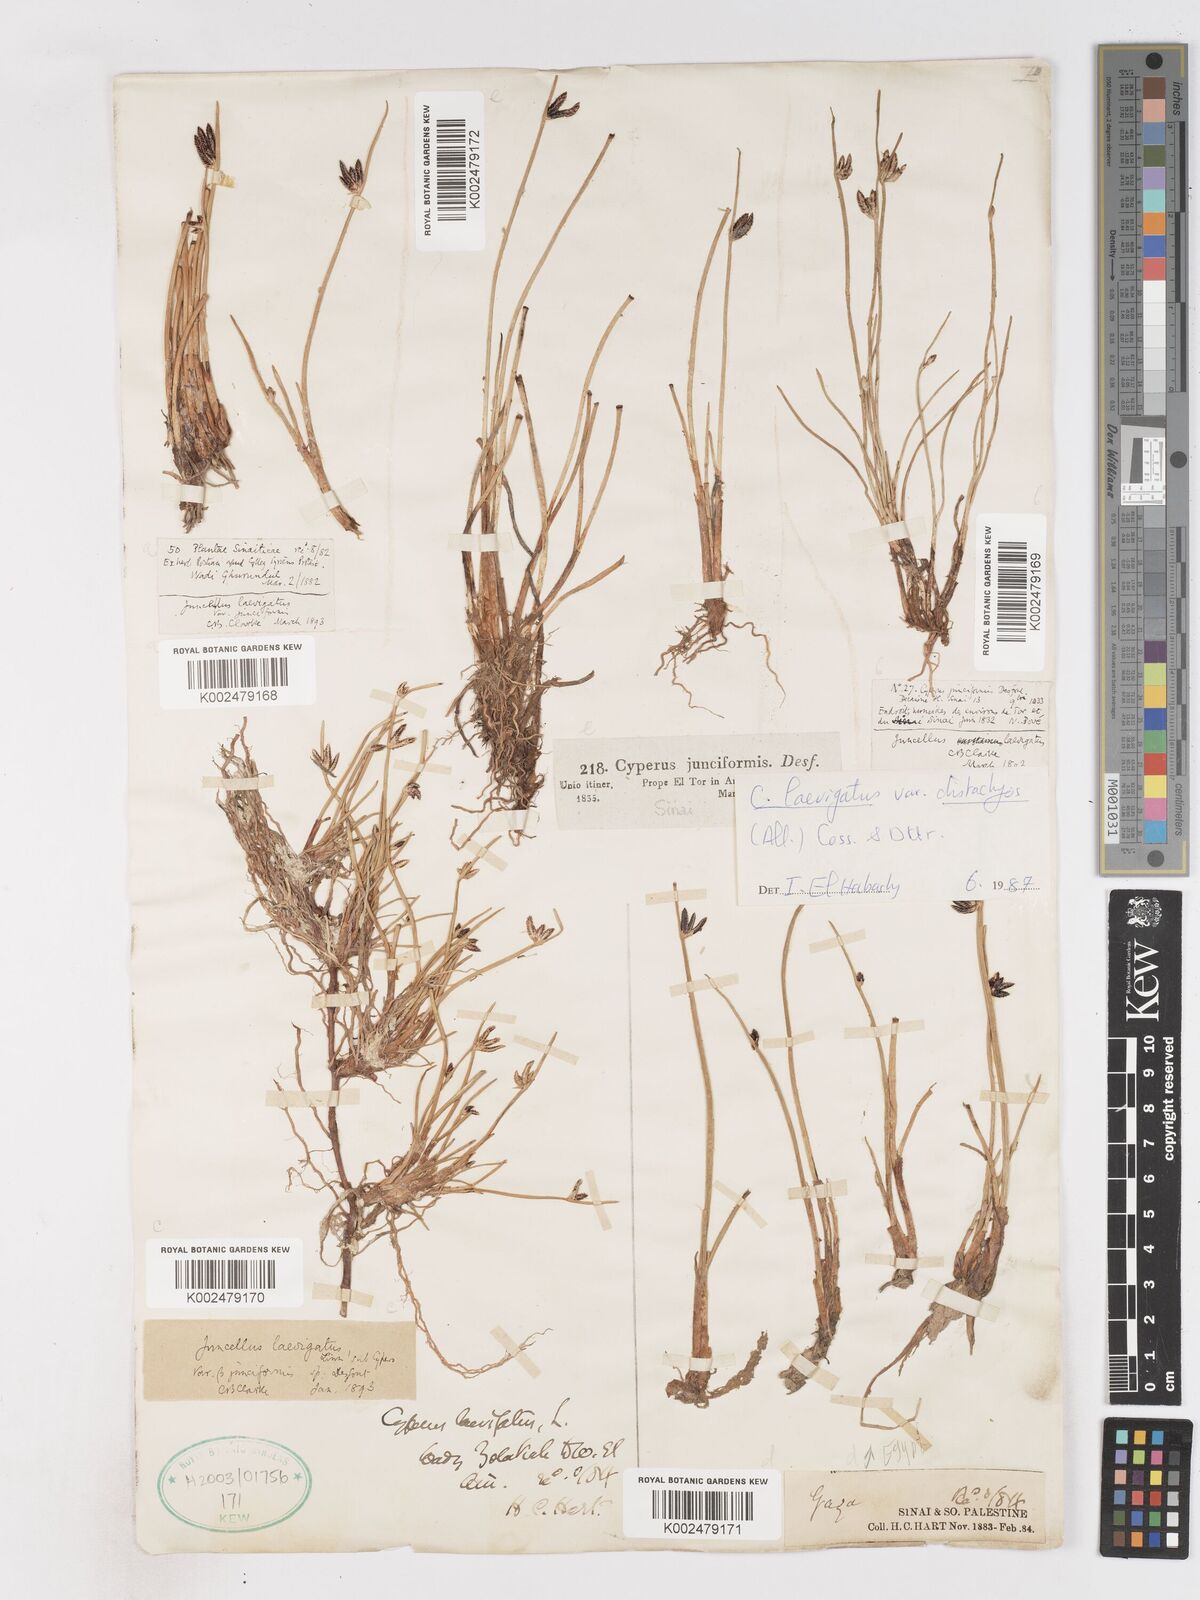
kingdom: Plantae
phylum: Tracheophyta
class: Liliopsida
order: Poales
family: Cyperaceae
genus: Cyperus
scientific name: Cyperus laevigatus
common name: Smooth flat sedge
